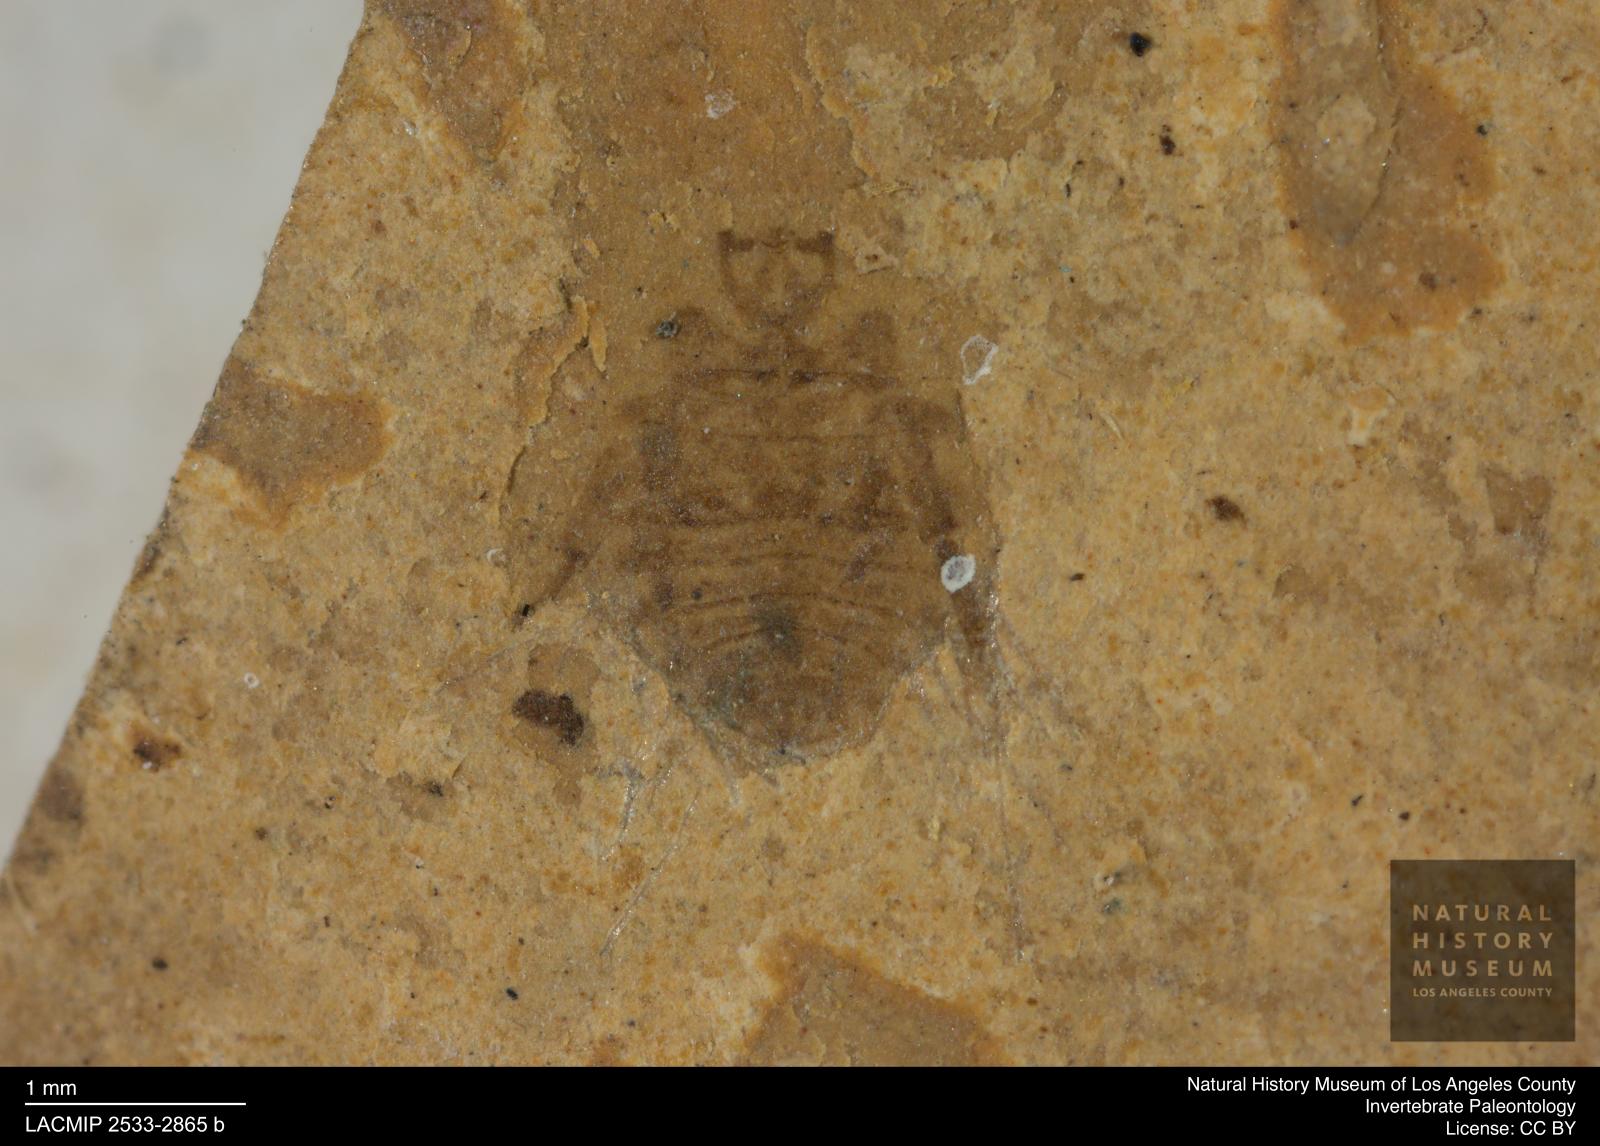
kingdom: Animalia
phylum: Arthropoda
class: Insecta
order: Hemiptera
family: Naucoridae
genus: Naucoris
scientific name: Naucoris rottensis
